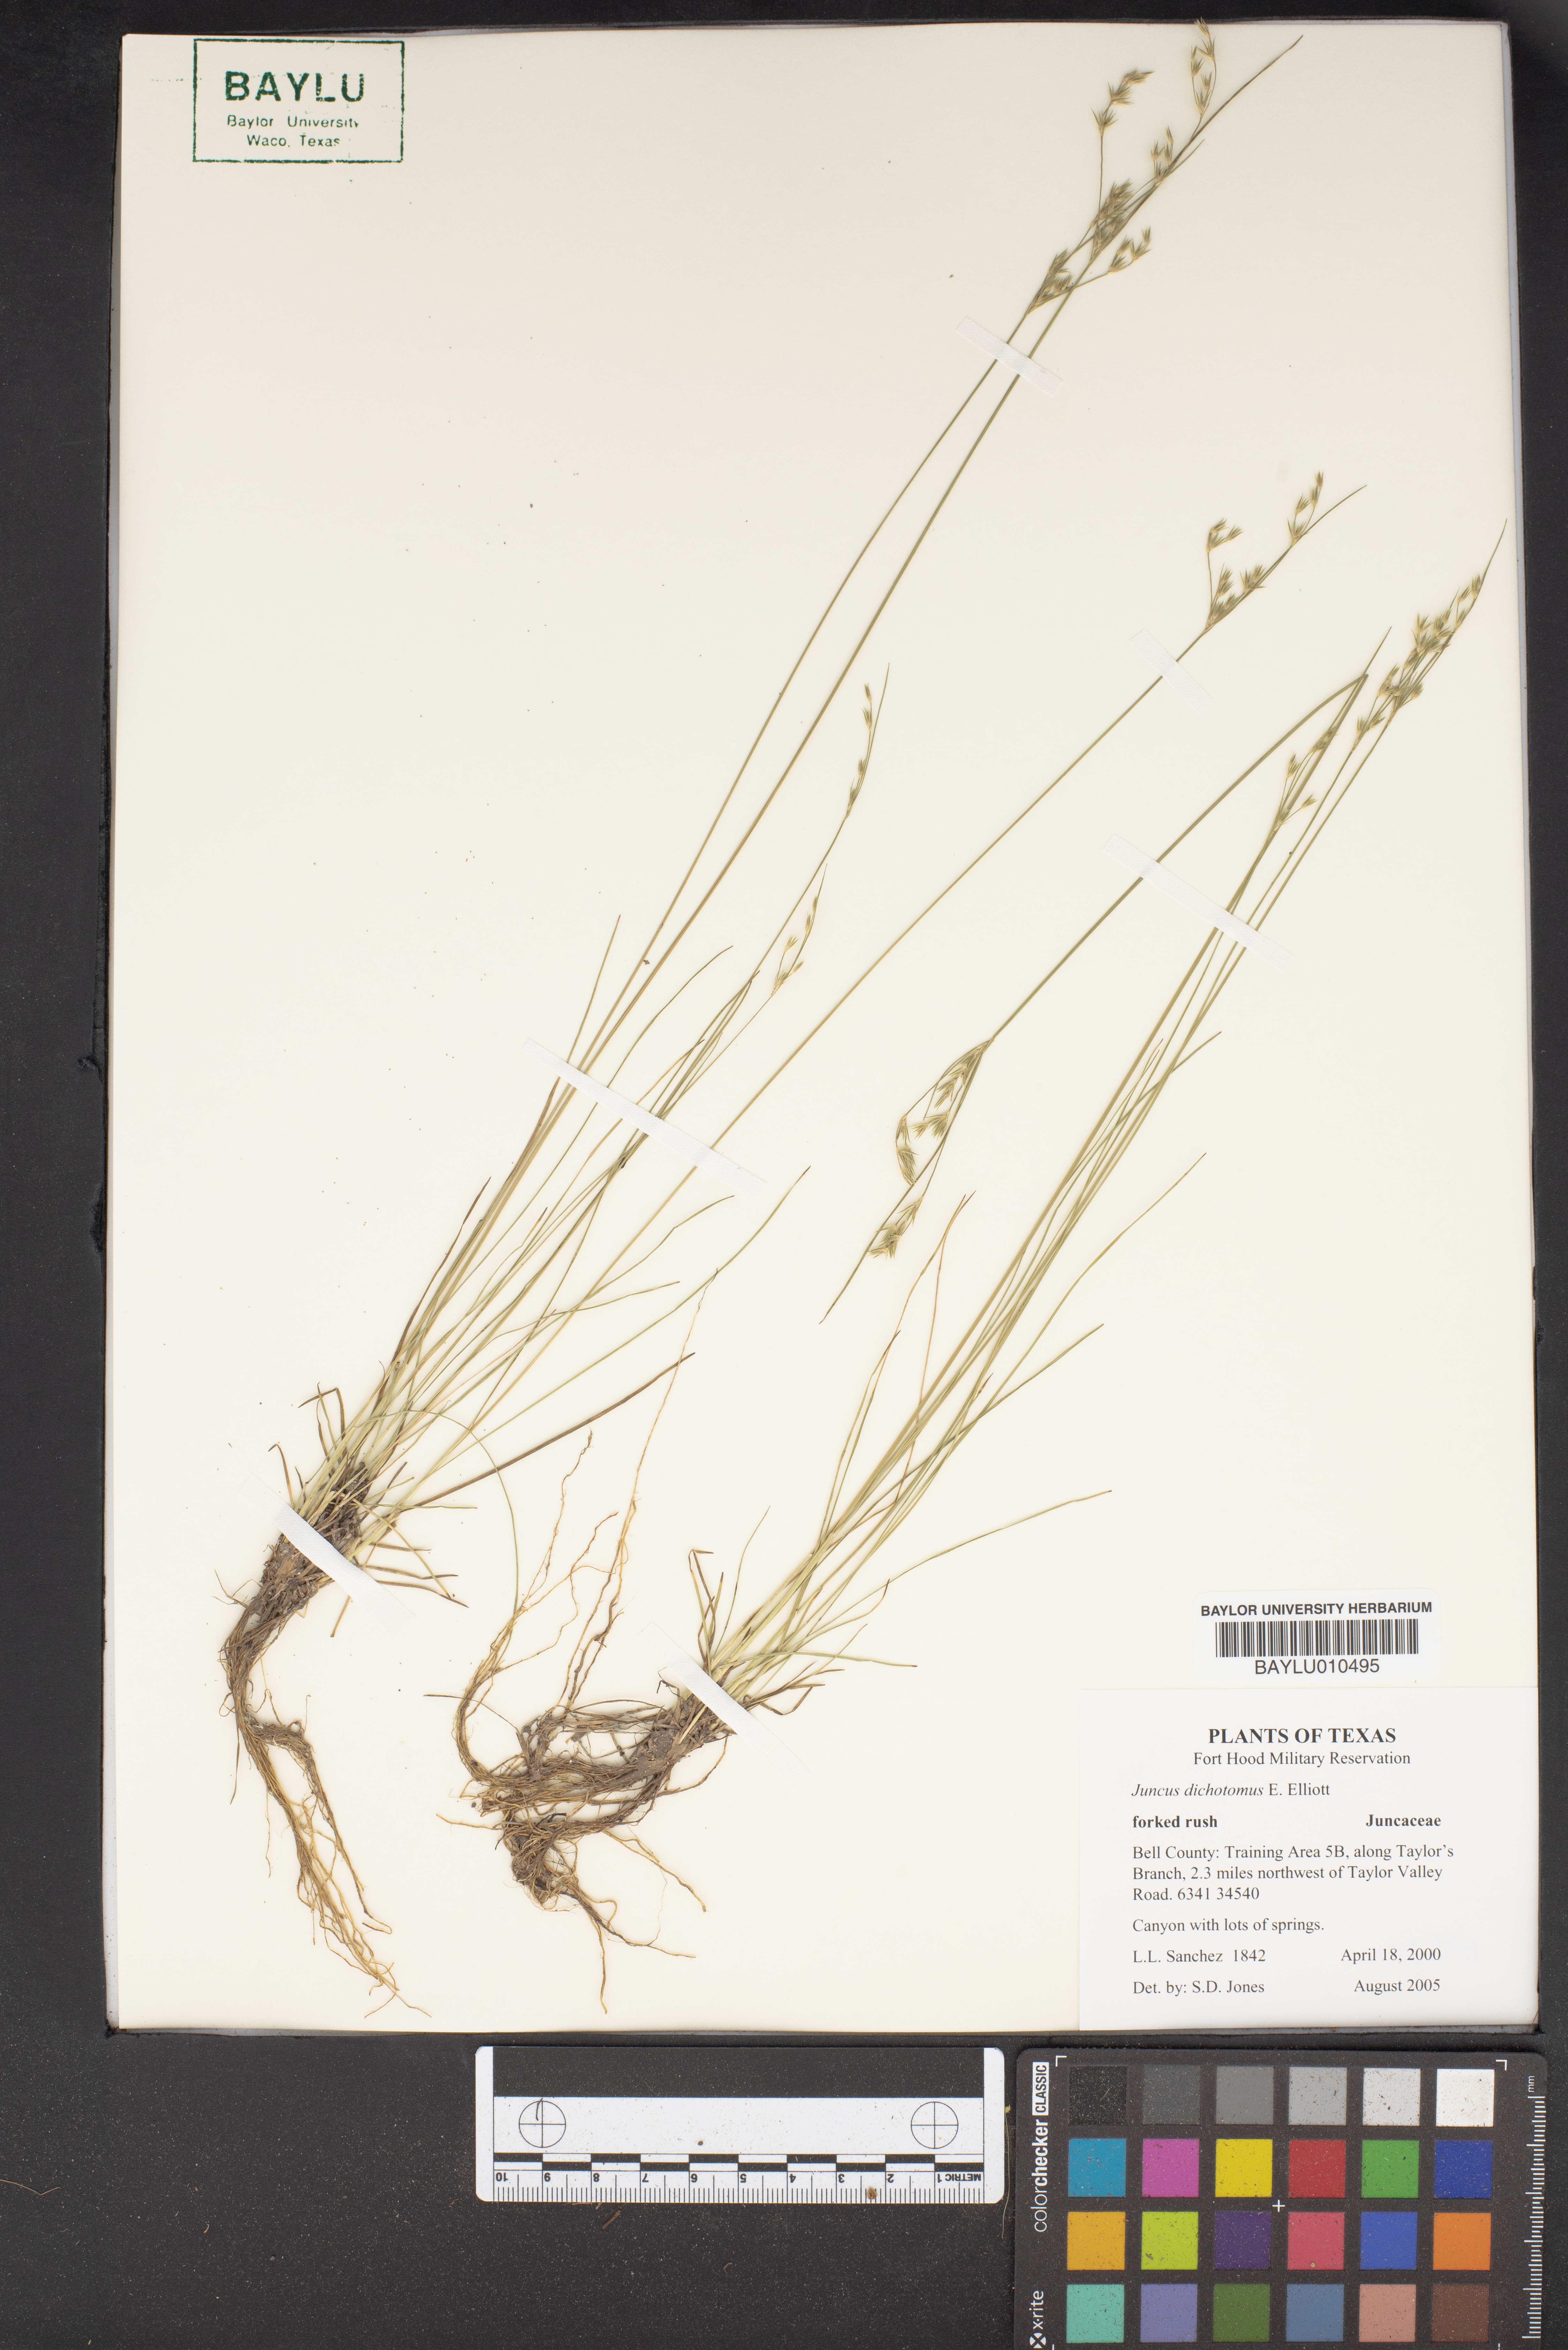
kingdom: Plantae
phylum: Tracheophyta
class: Liliopsida
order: Poales
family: Juncaceae
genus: Juncus
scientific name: Juncus dichotomus
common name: Forked rush
